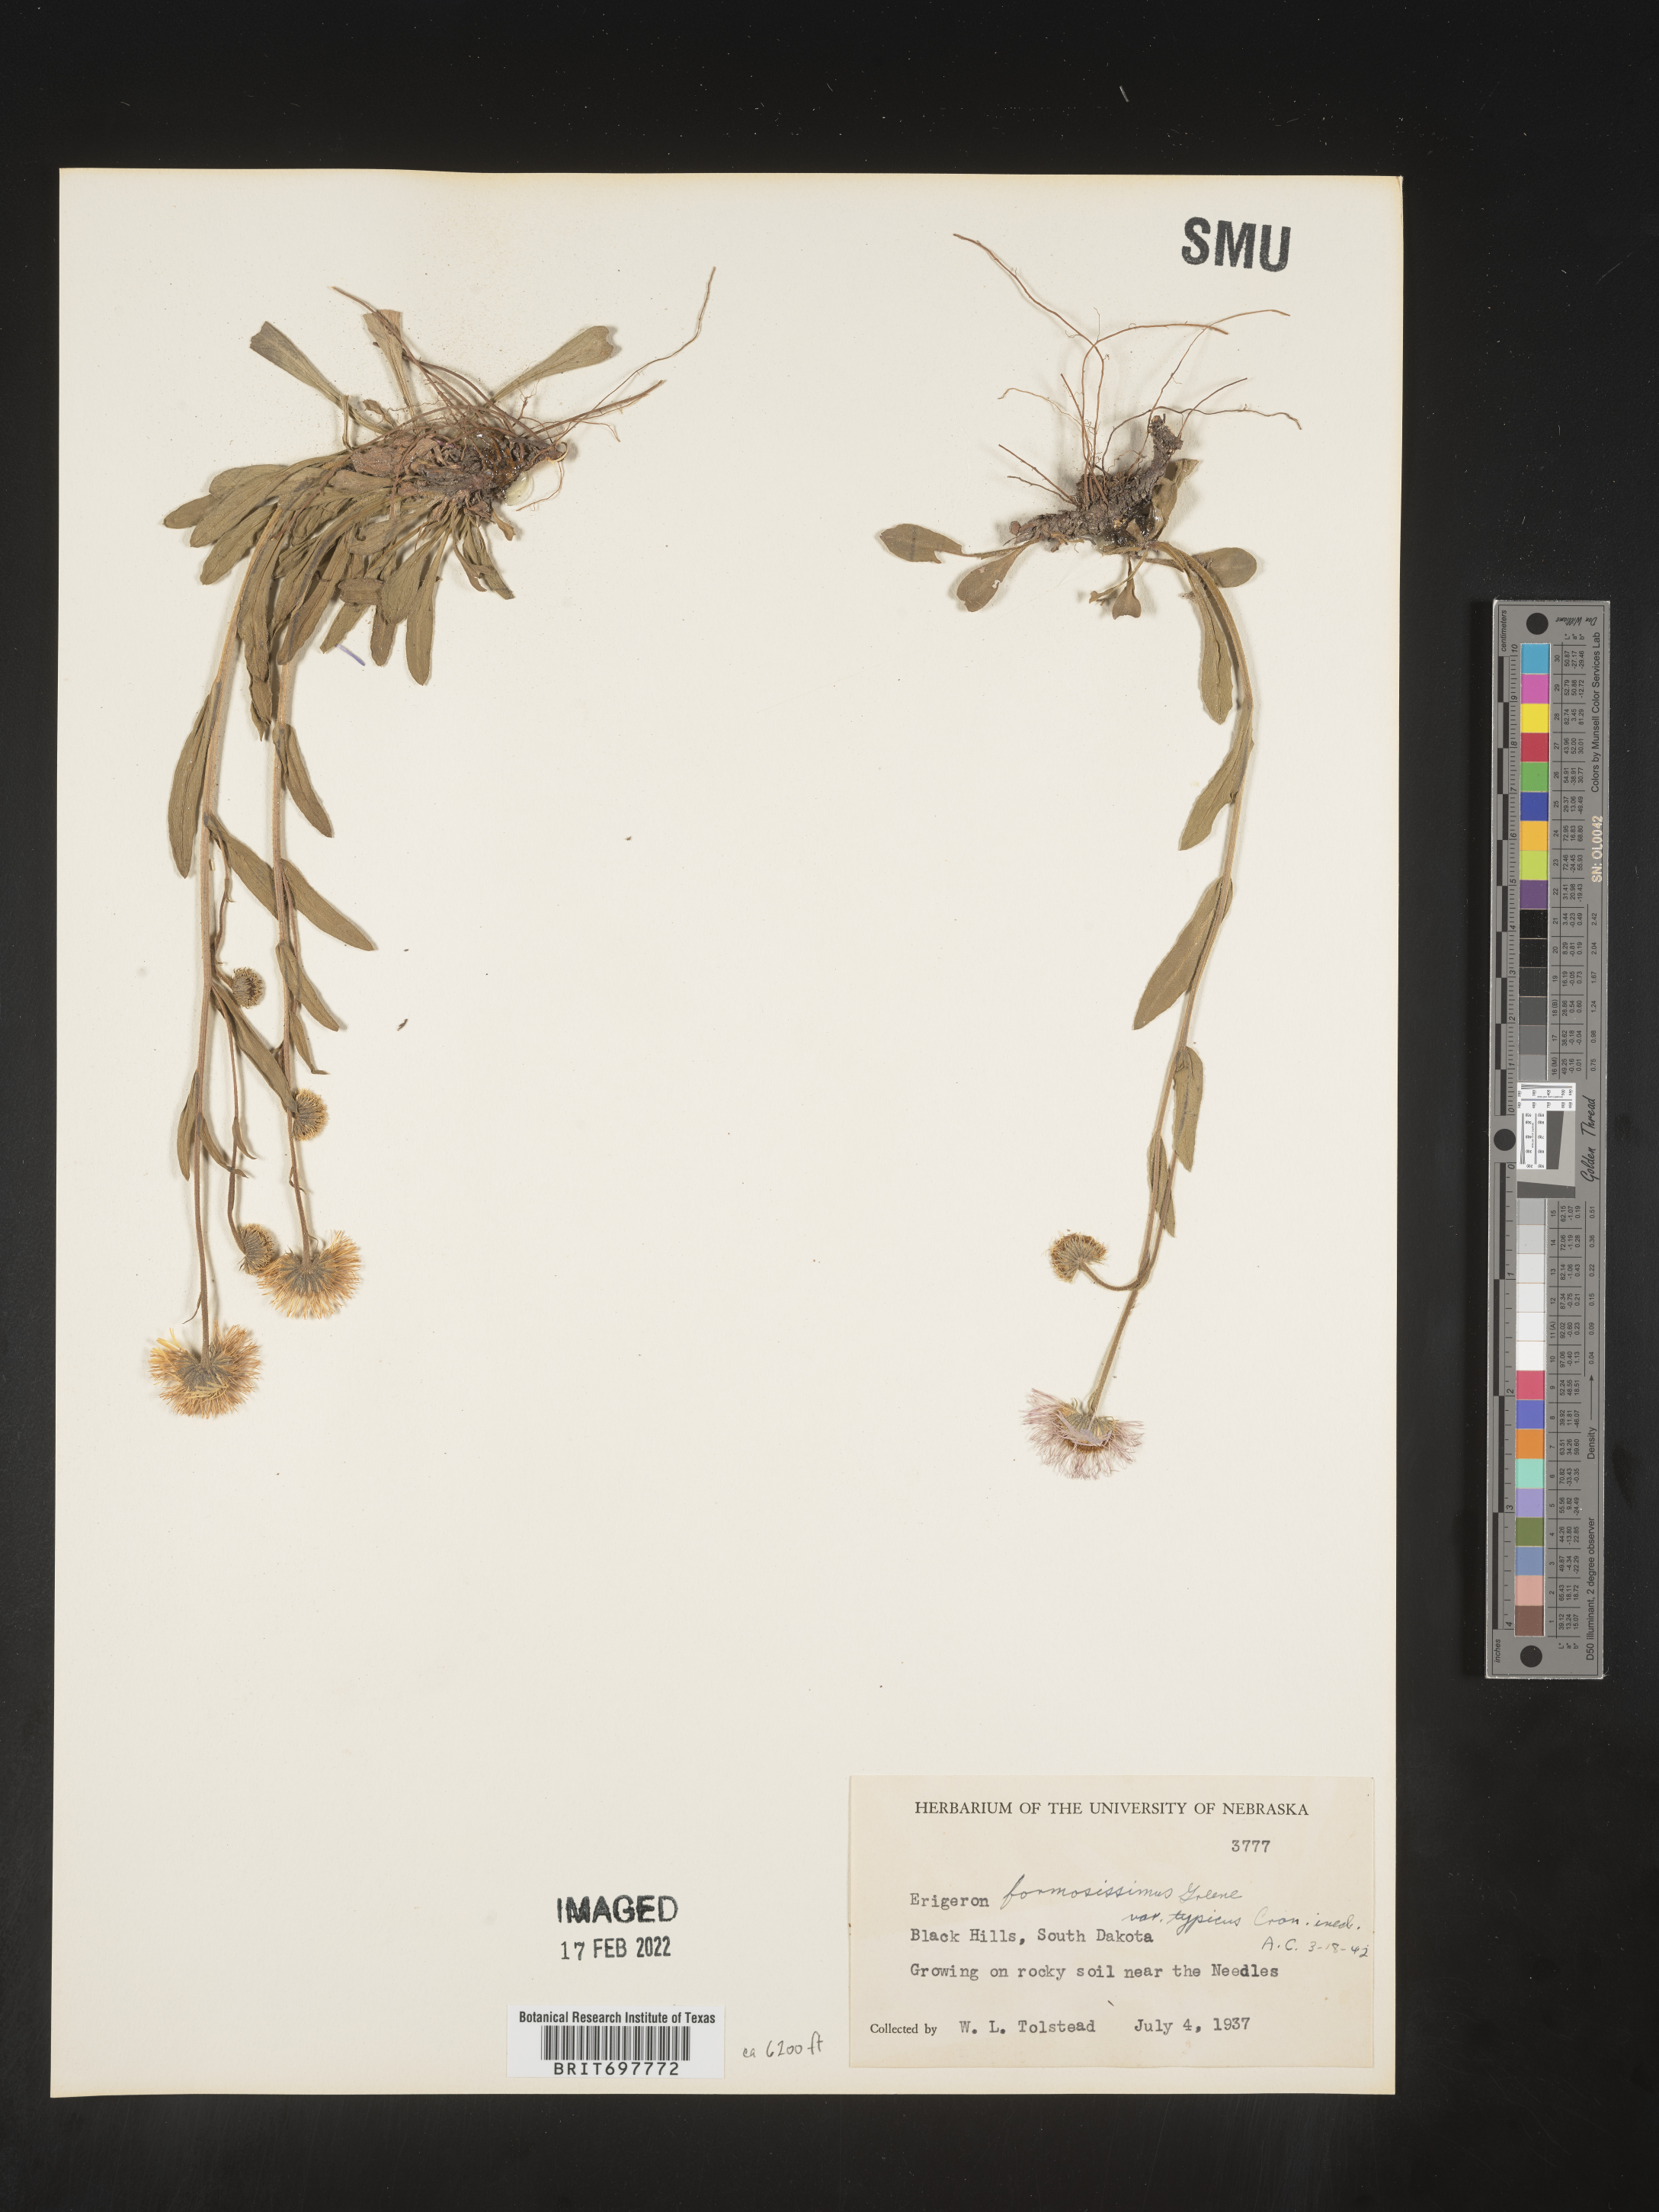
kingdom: Plantae
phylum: Tracheophyta
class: Magnoliopsida
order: Asterales
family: Asteraceae
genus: Erigeron
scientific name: Erigeron formosissimus
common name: Beautiful fleabane
